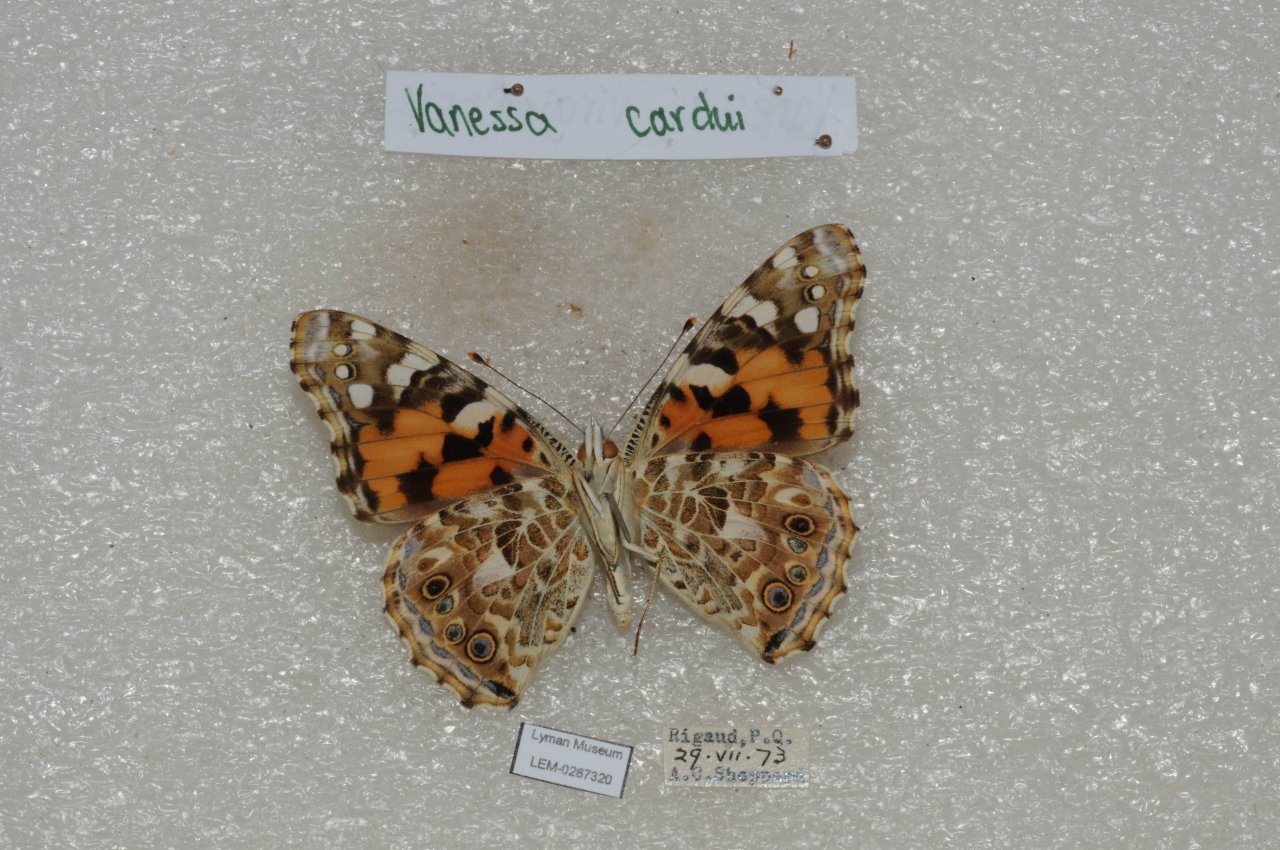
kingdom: Animalia
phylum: Arthropoda
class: Insecta
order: Lepidoptera
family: Nymphalidae
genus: Vanessa
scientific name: Vanessa cardui
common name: Painted Lady
